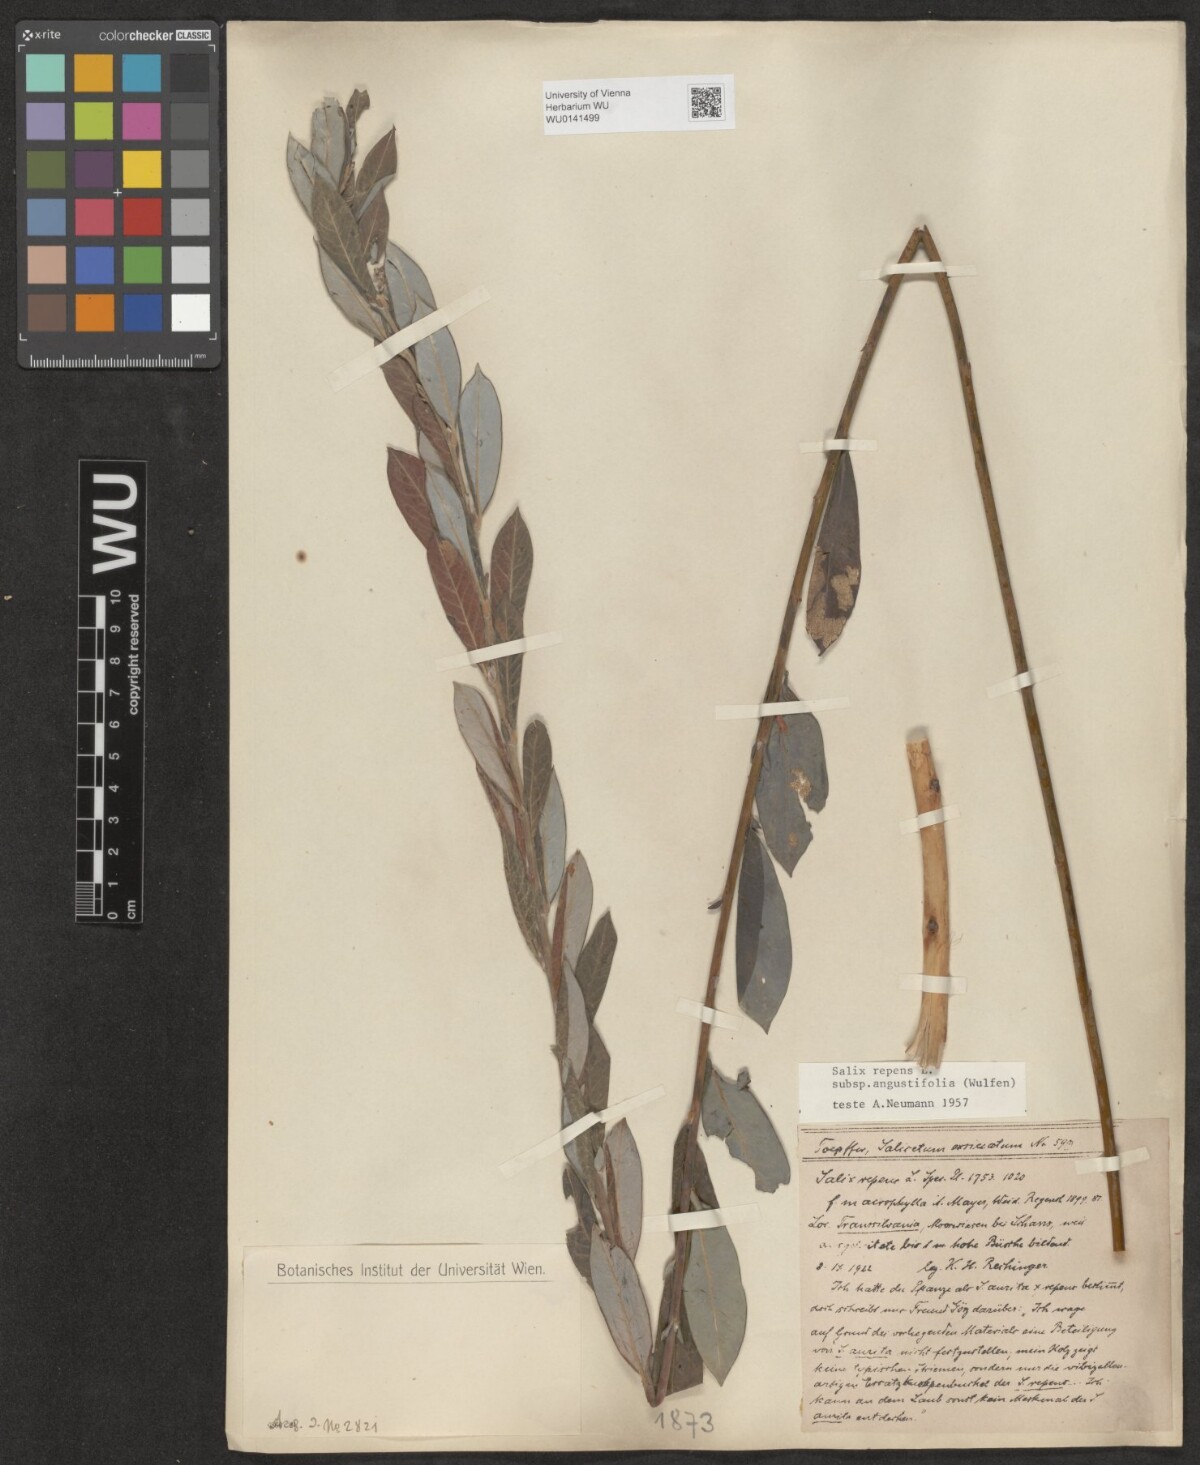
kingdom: Plantae
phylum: Tracheophyta
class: Magnoliopsida
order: Malpighiales
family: Salicaceae
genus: Salix
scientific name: Salix rosmarinifolia
